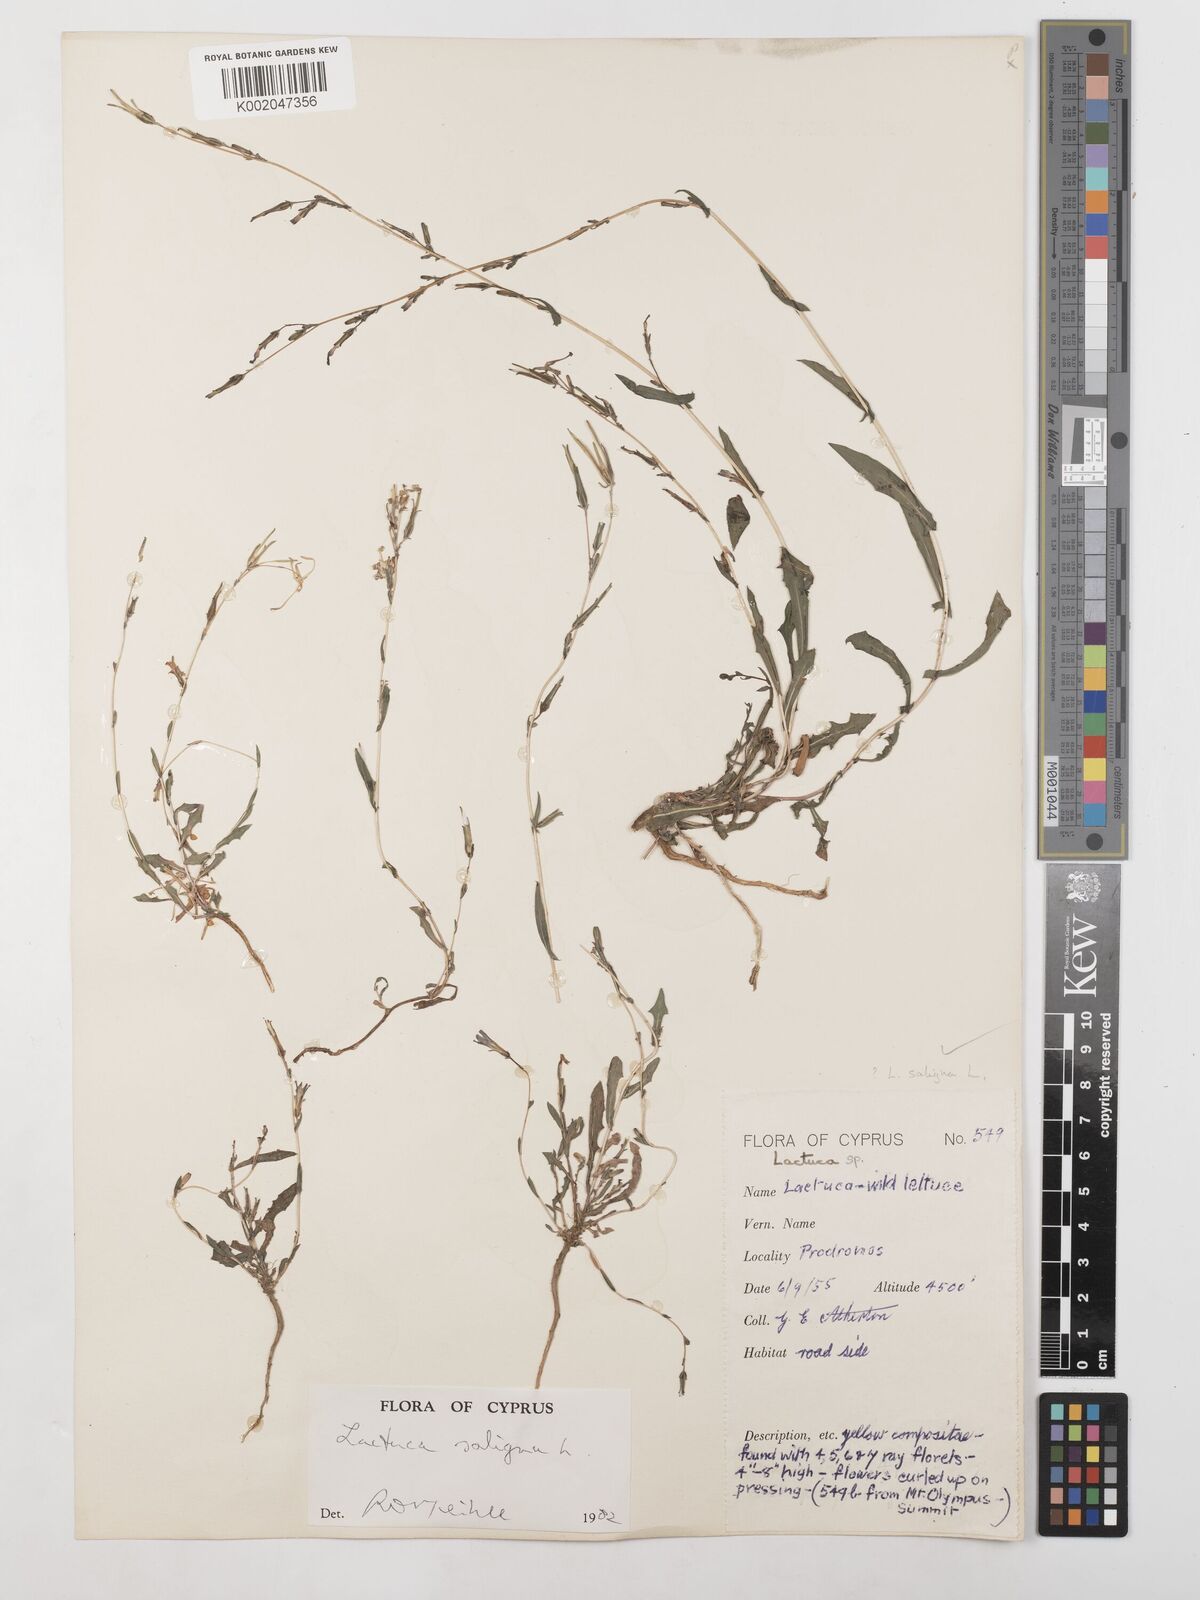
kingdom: Plantae
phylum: Tracheophyta
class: Magnoliopsida
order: Asterales
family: Asteraceae
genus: Lactuca
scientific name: Lactuca saligna
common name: Wild lettuce
